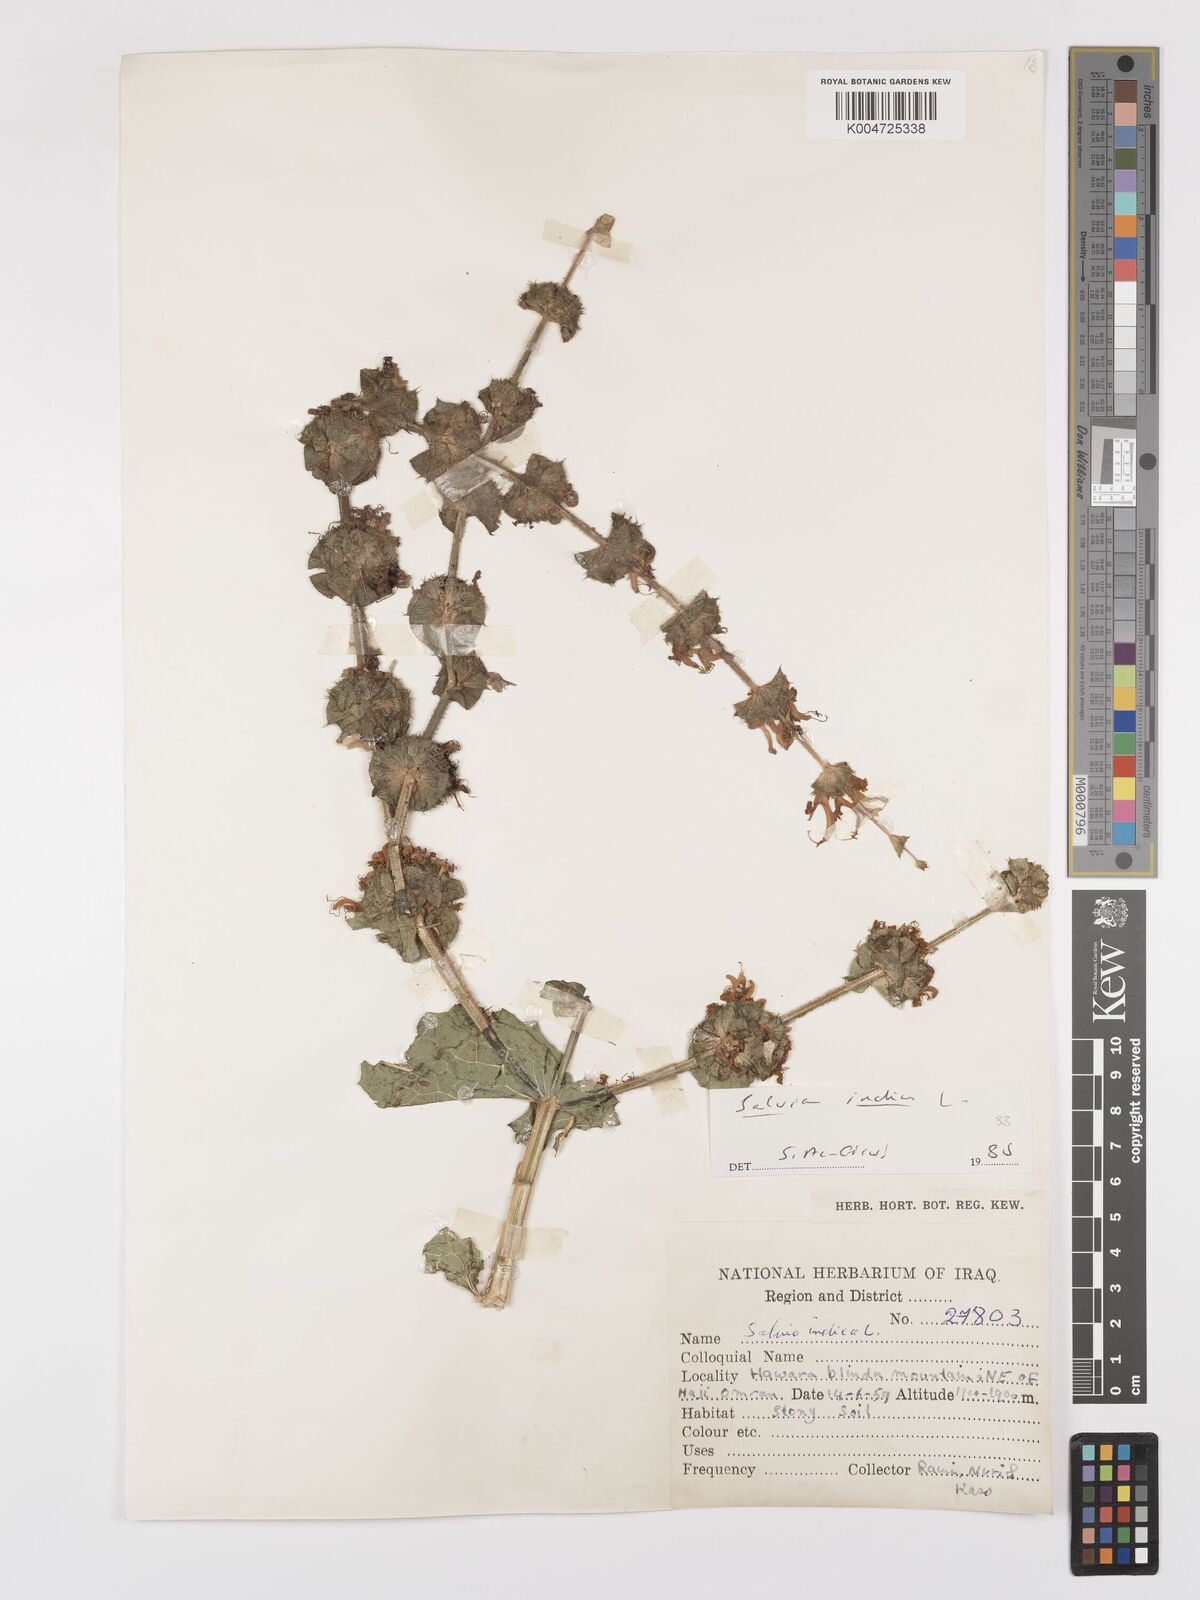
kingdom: Plantae
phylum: Tracheophyta
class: Magnoliopsida
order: Lamiales
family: Lamiaceae
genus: Salvia
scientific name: Salvia indica
